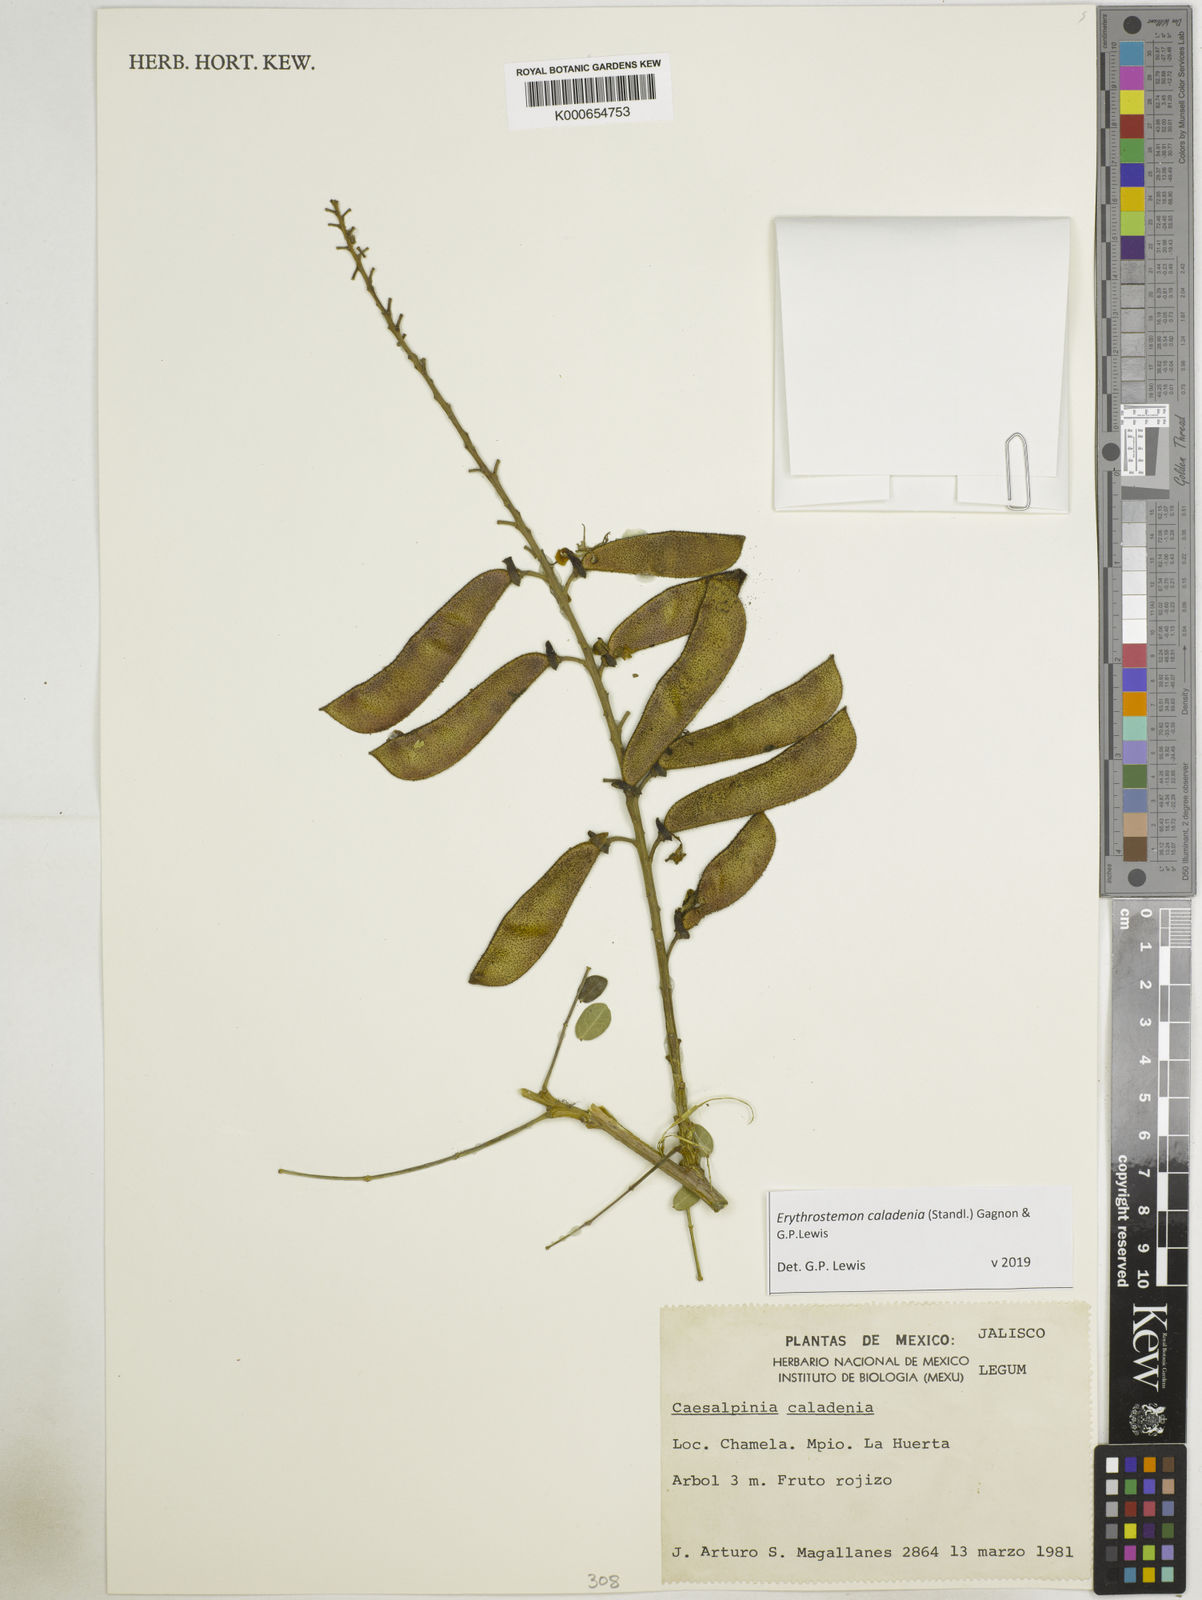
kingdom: Plantae
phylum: Tracheophyta
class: Magnoliopsida
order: Fabales
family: Fabaceae
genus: Erythrostemon
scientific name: Erythrostemon caladenia
